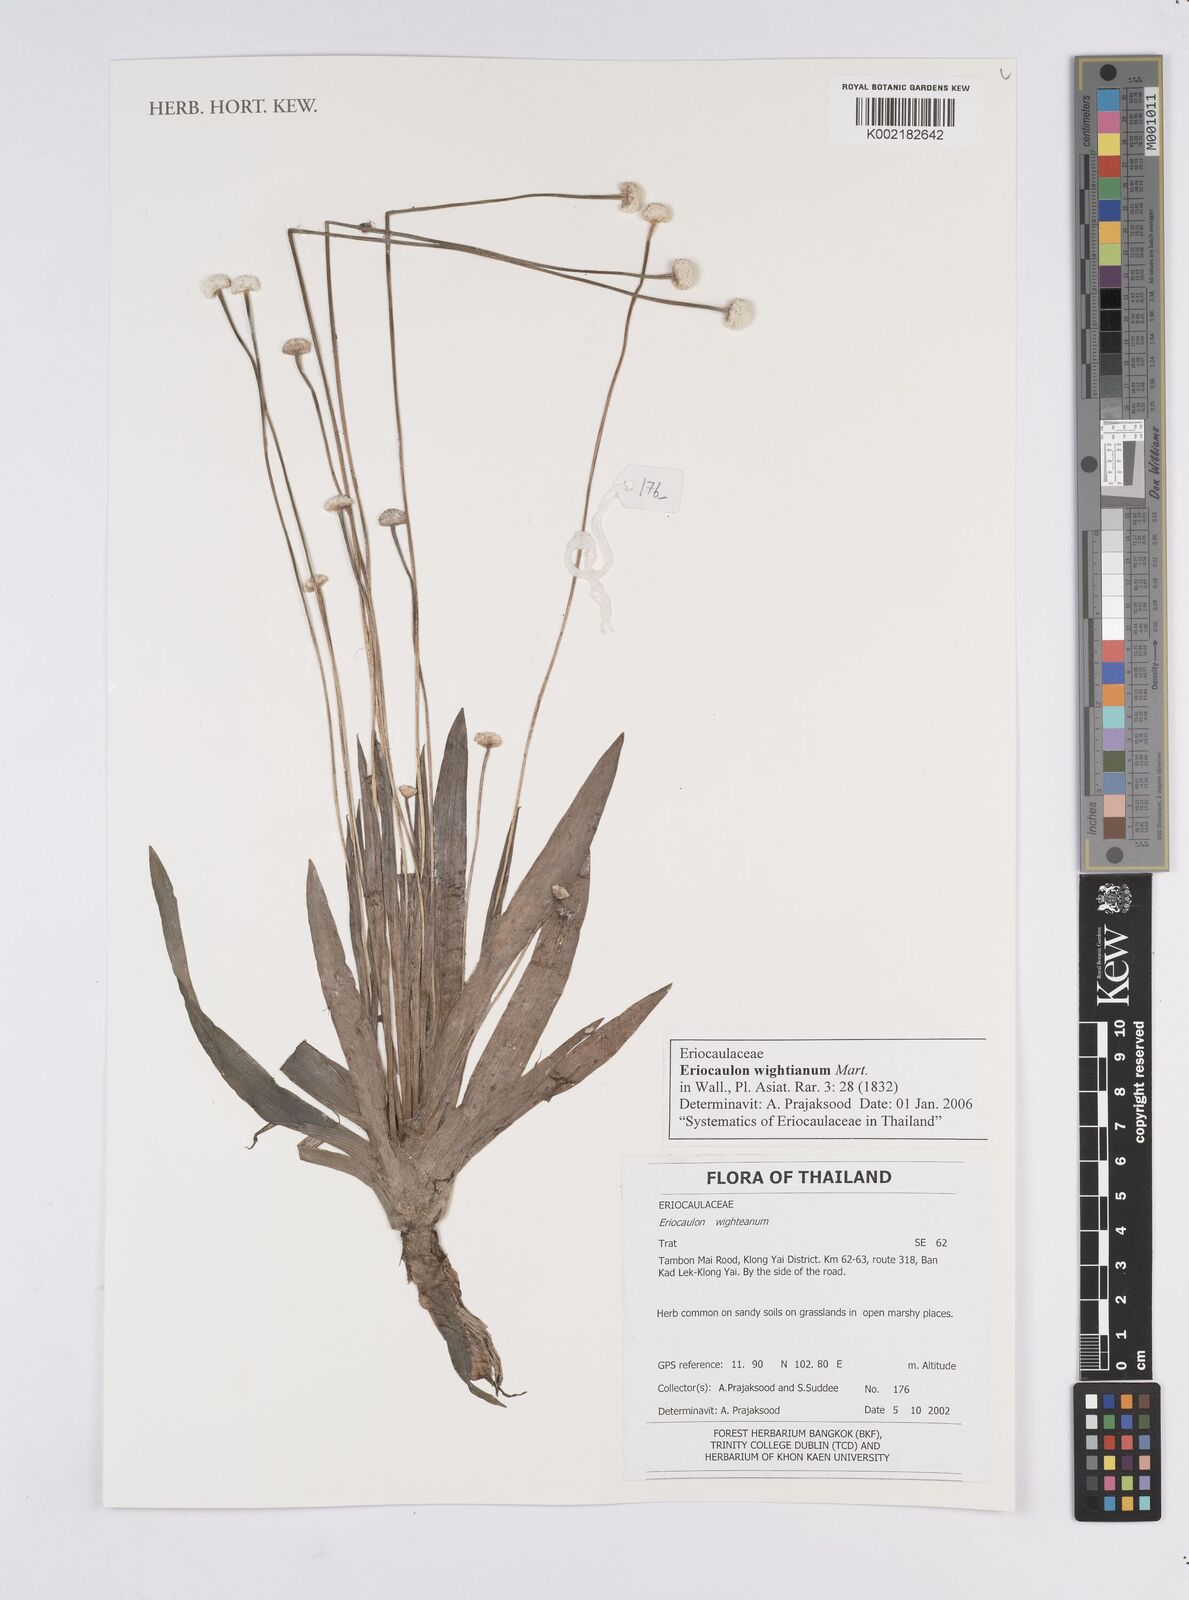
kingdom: Plantae
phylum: Tracheophyta
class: Liliopsida
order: Poales
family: Eriocaulaceae
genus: Eriocaulon
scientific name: Eriocaulon wightianum
